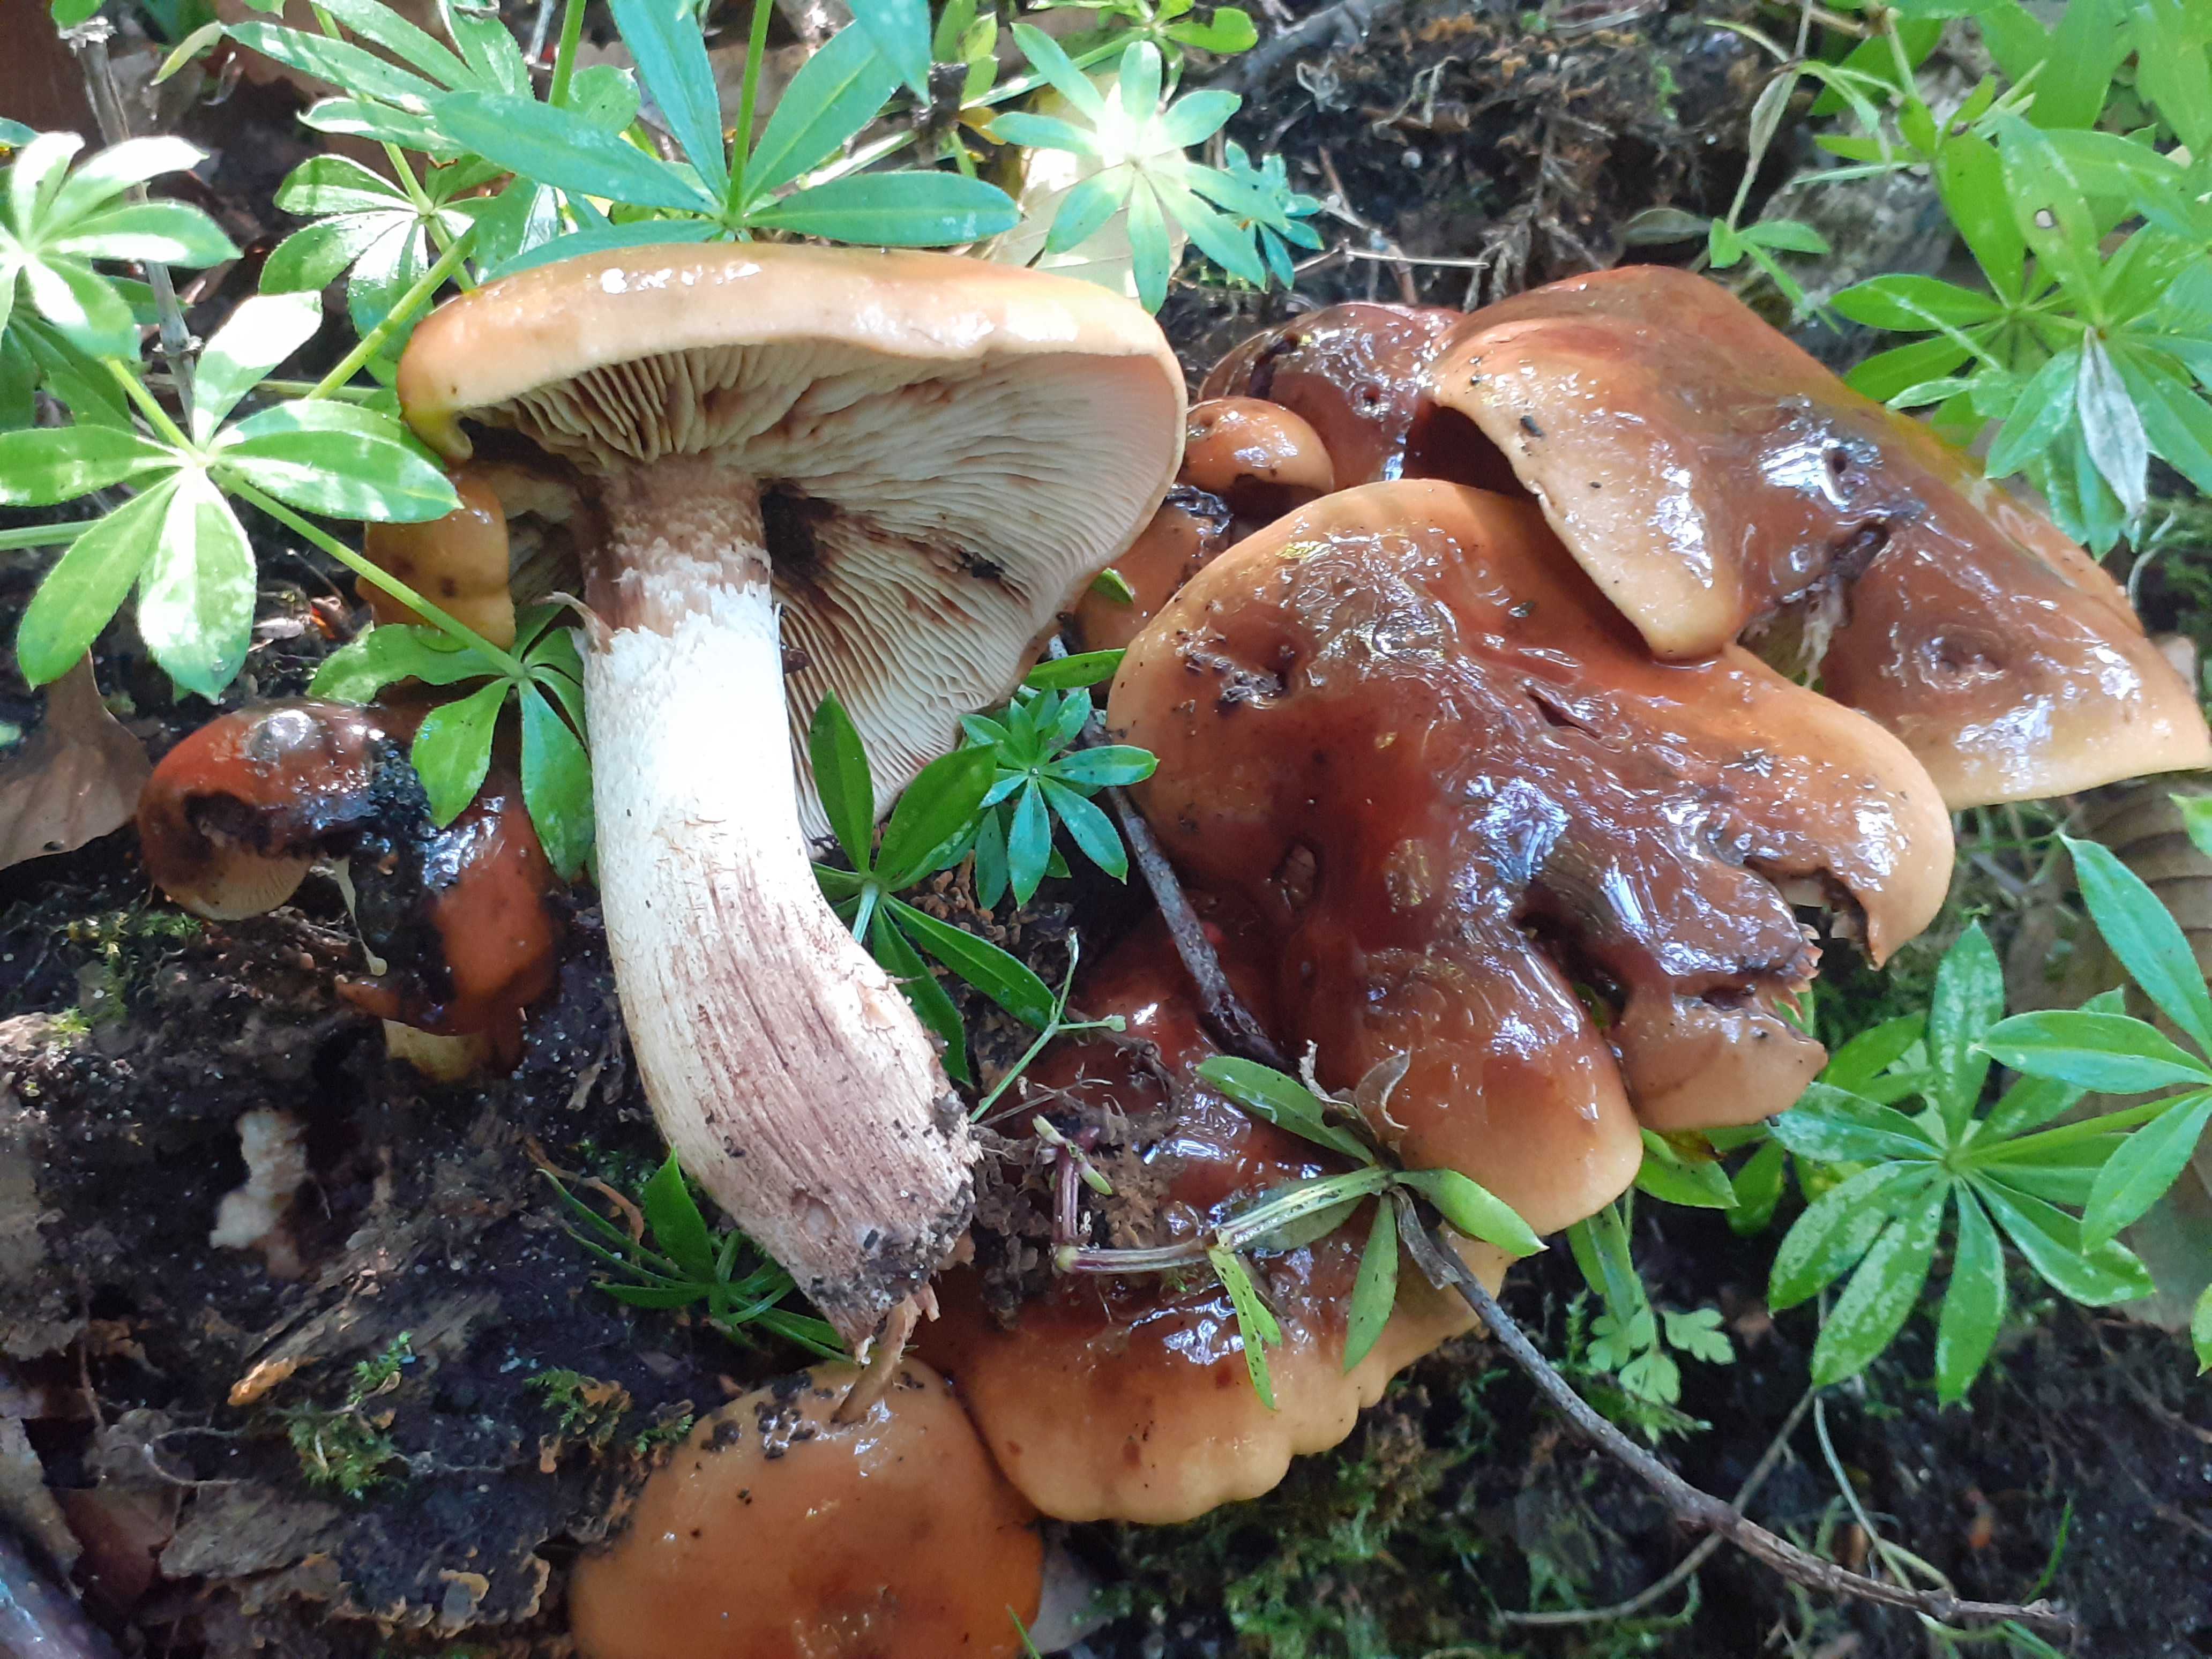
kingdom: Fungi
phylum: Basidiomycota
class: Agaricomycetes
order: Agaricales
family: Tricholomataceae
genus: Tricholoma
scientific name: Tricholoma ustale
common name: sveden ridderhat
